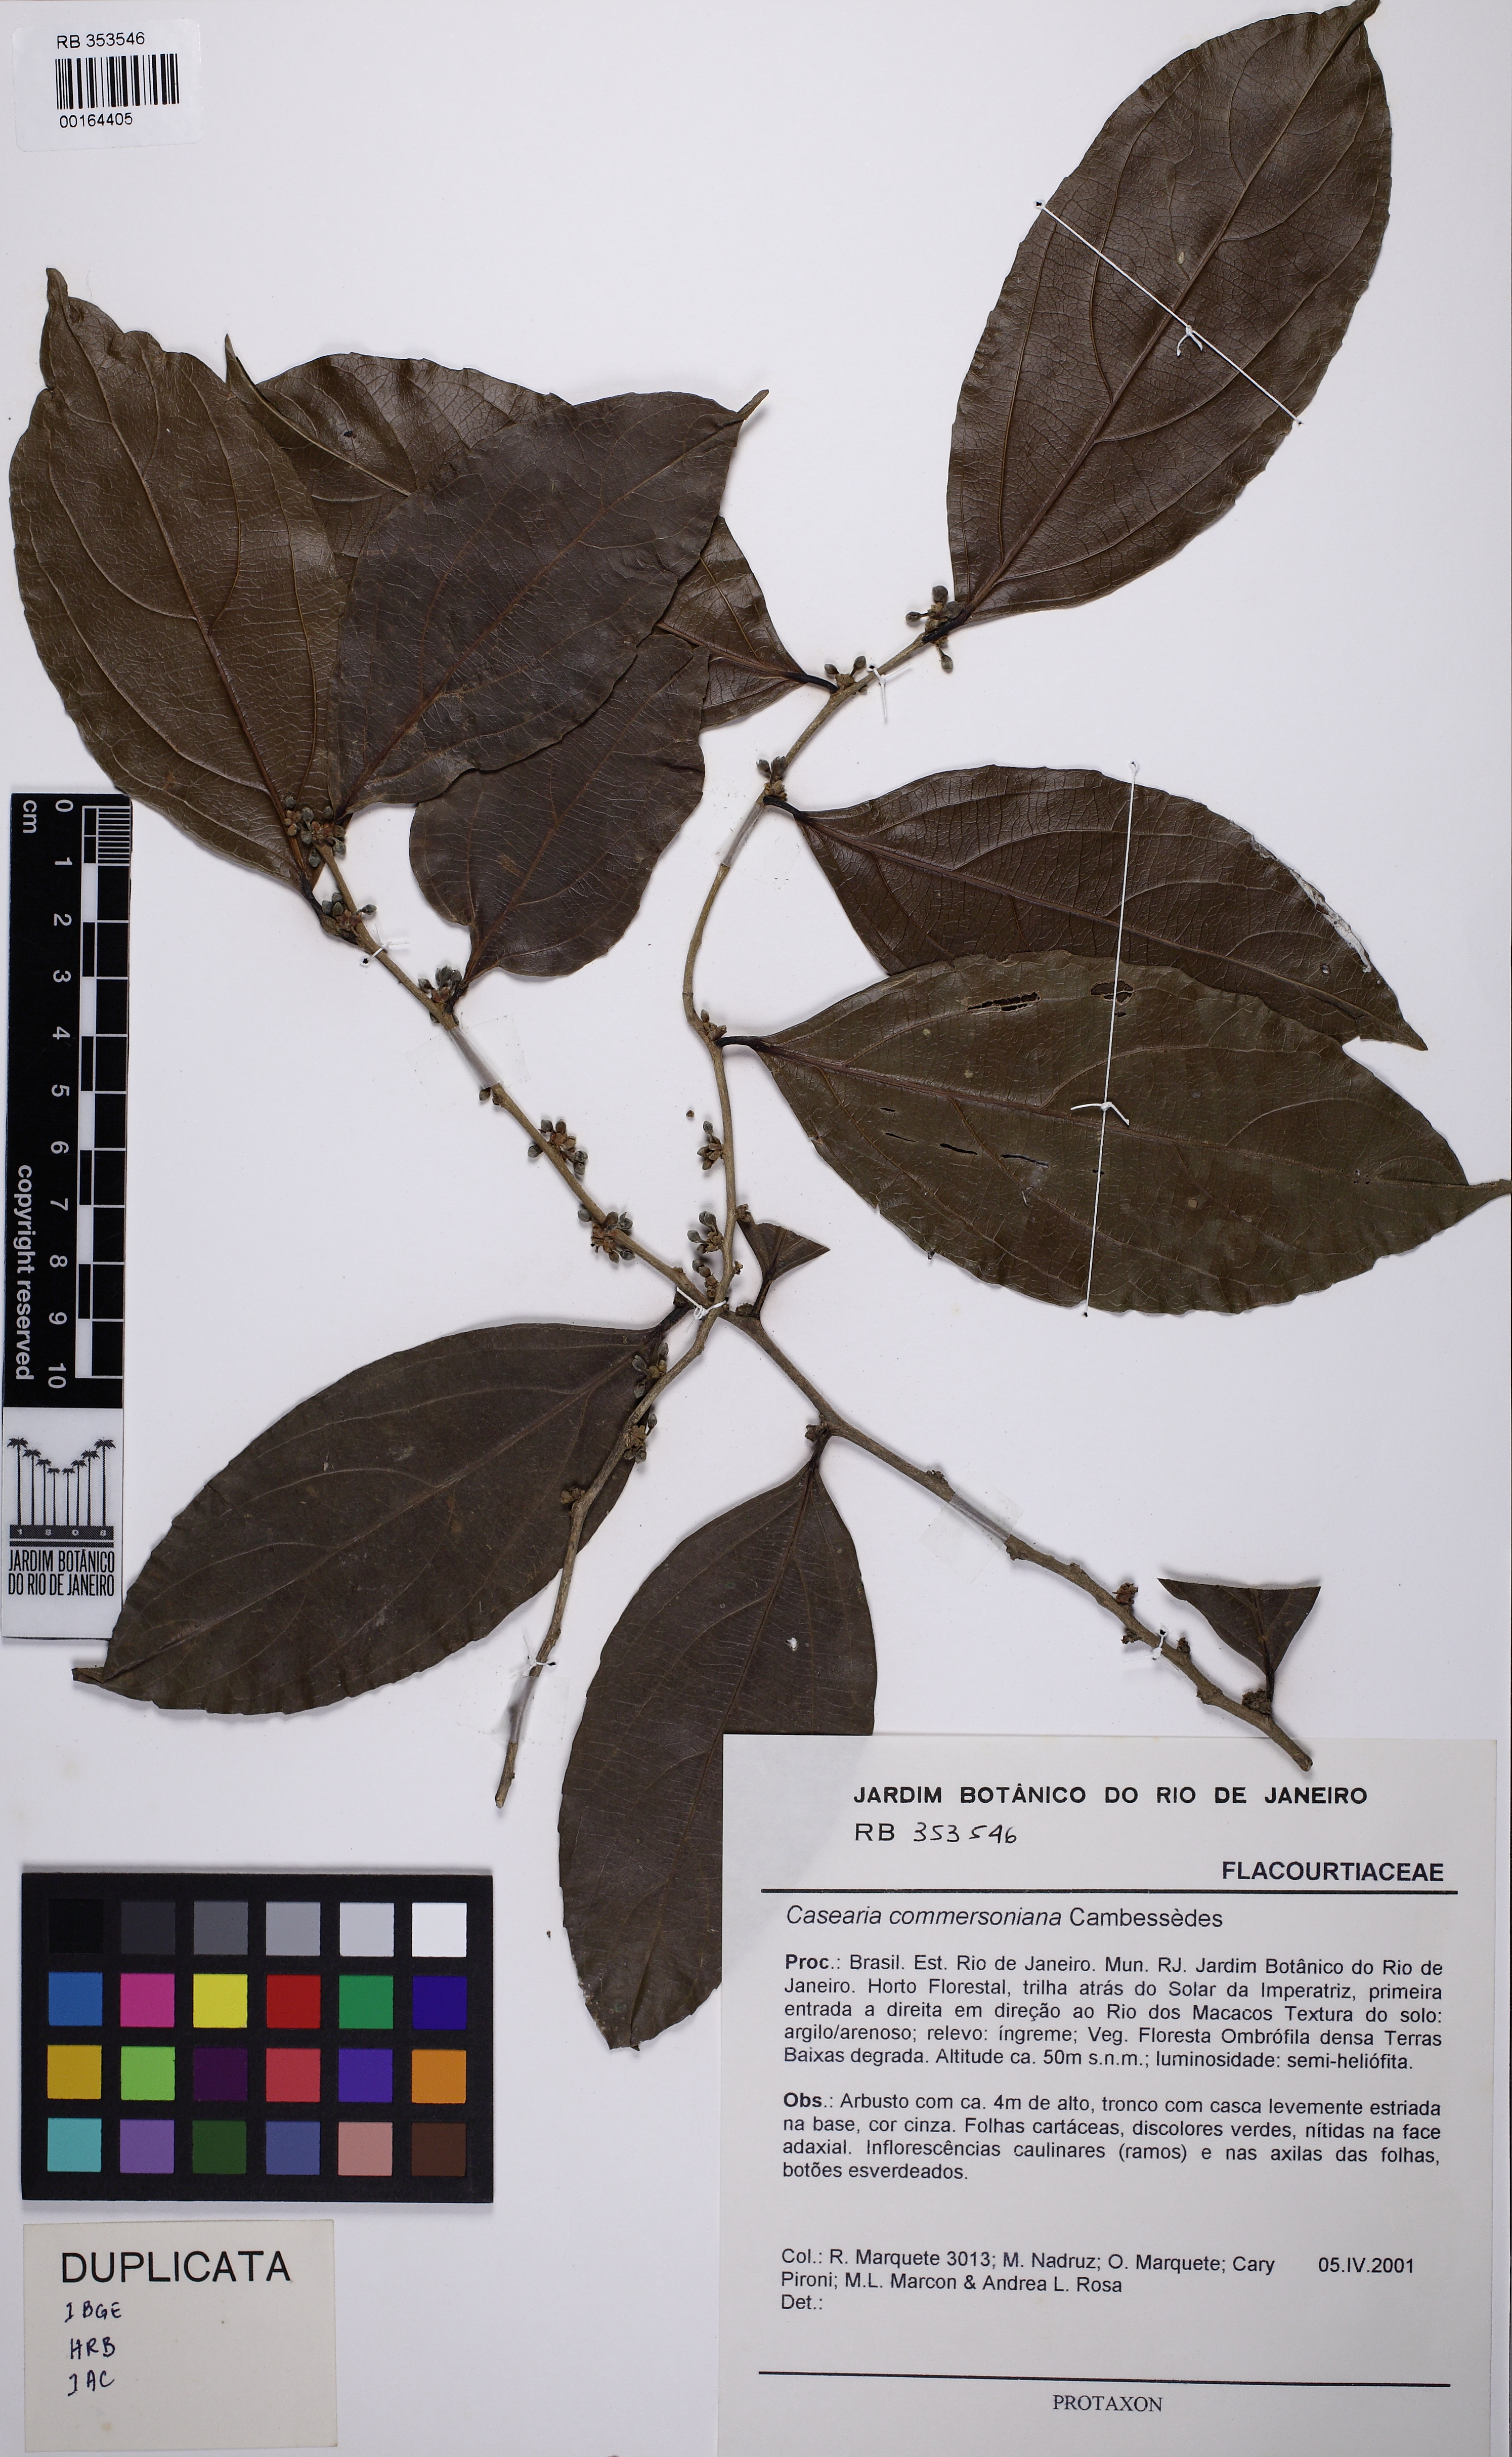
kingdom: Plantae
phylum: Tracheophyta
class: Magnoliopsida
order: Malpighiales
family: Salicaceae
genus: Piparea
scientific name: Piparea dentata
